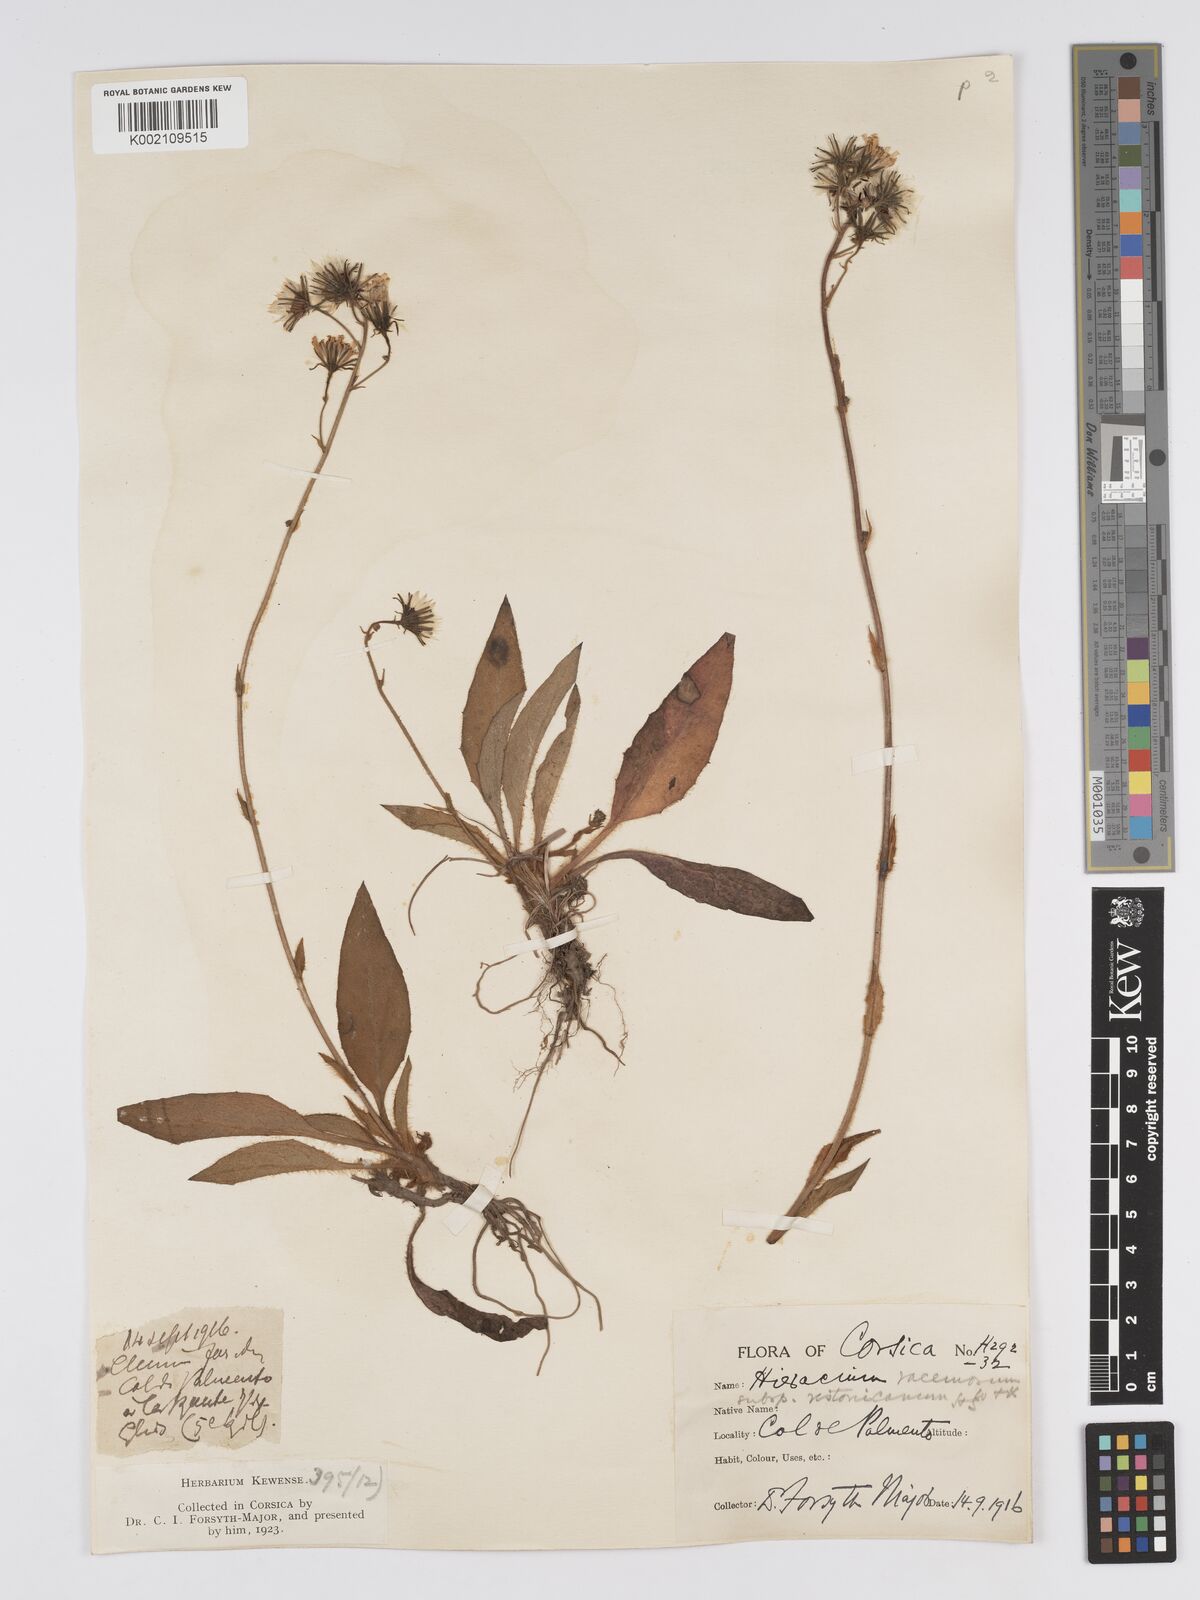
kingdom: Plantae
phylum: Tracheophyta
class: Magnoliopsida
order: Asterales
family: Asteraceae
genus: Hieracium
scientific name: Hieracium
